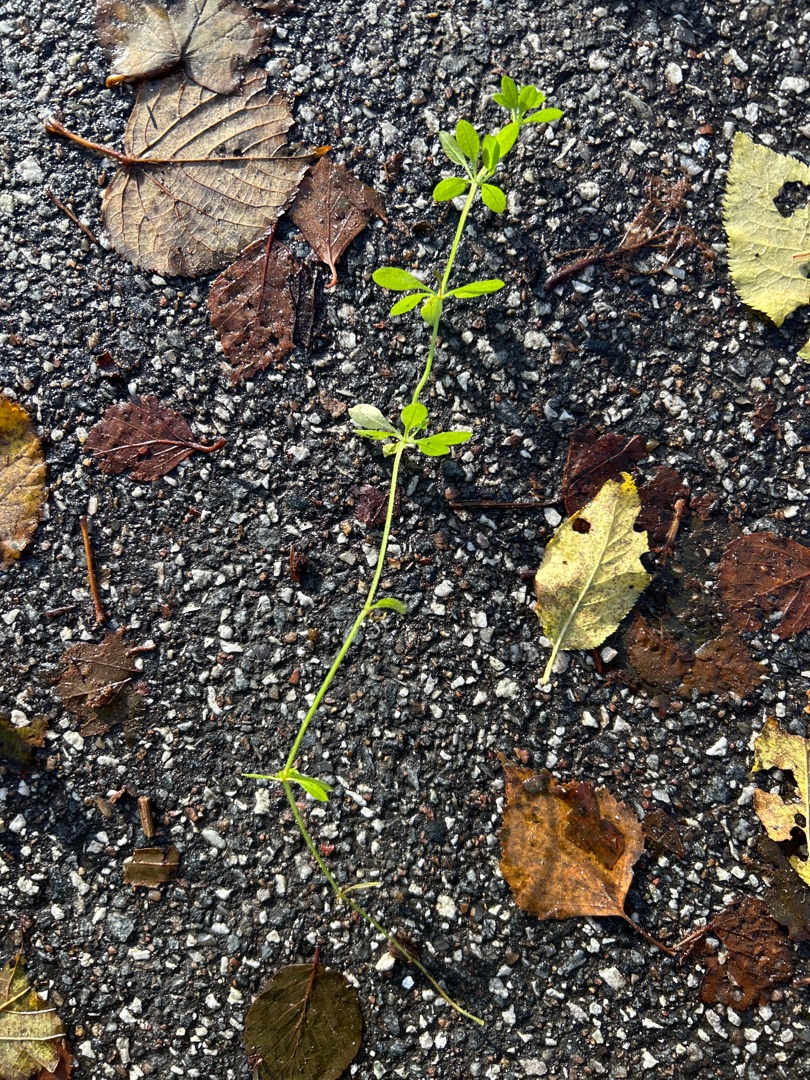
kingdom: Plantae
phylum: Tracheophyta
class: Magnoliopsida
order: Gentianales
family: Rubiaceae
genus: Galium
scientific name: Galium aparine
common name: Burre-snerre
